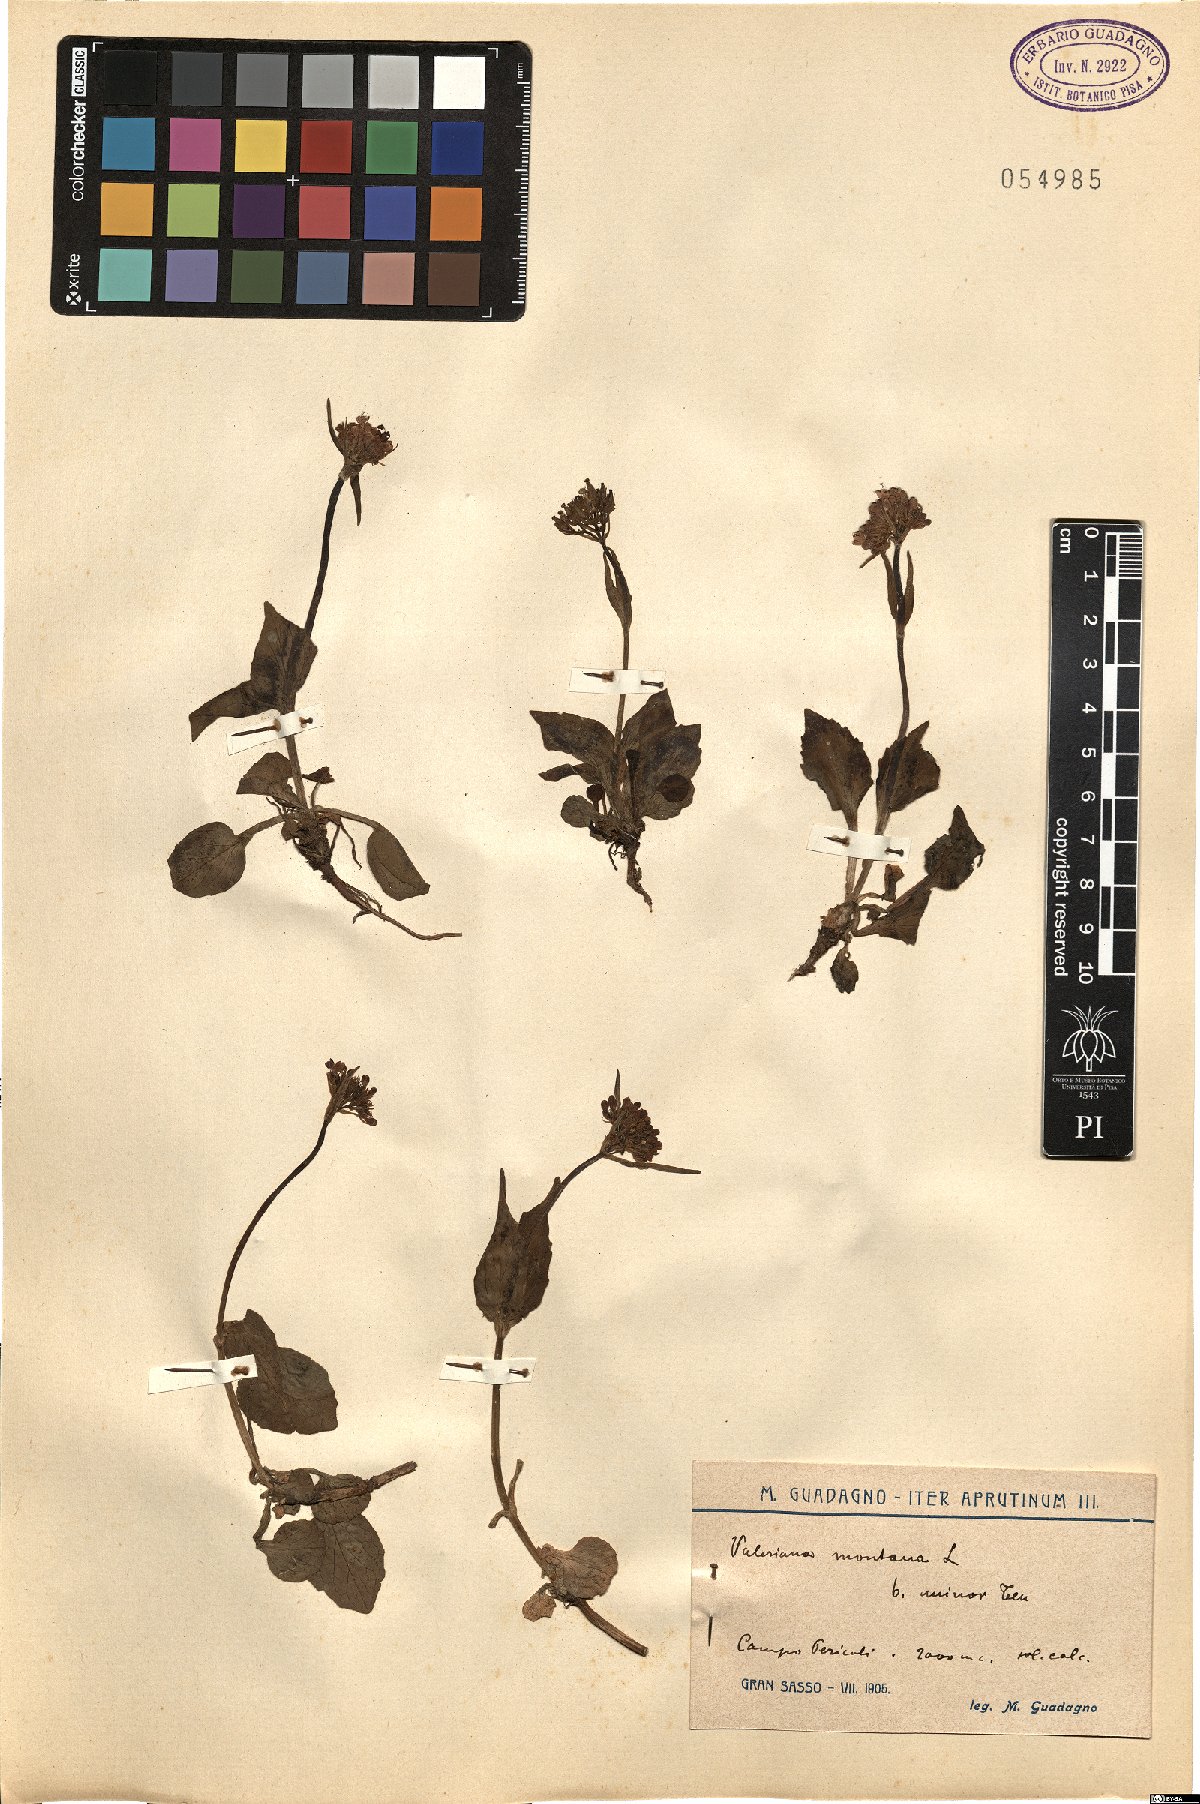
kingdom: Plantae
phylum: Tracheophyta
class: Magnoliopsida
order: Dipsacales
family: Caprifoliaceae
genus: Valeriana
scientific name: Valeriana montana
